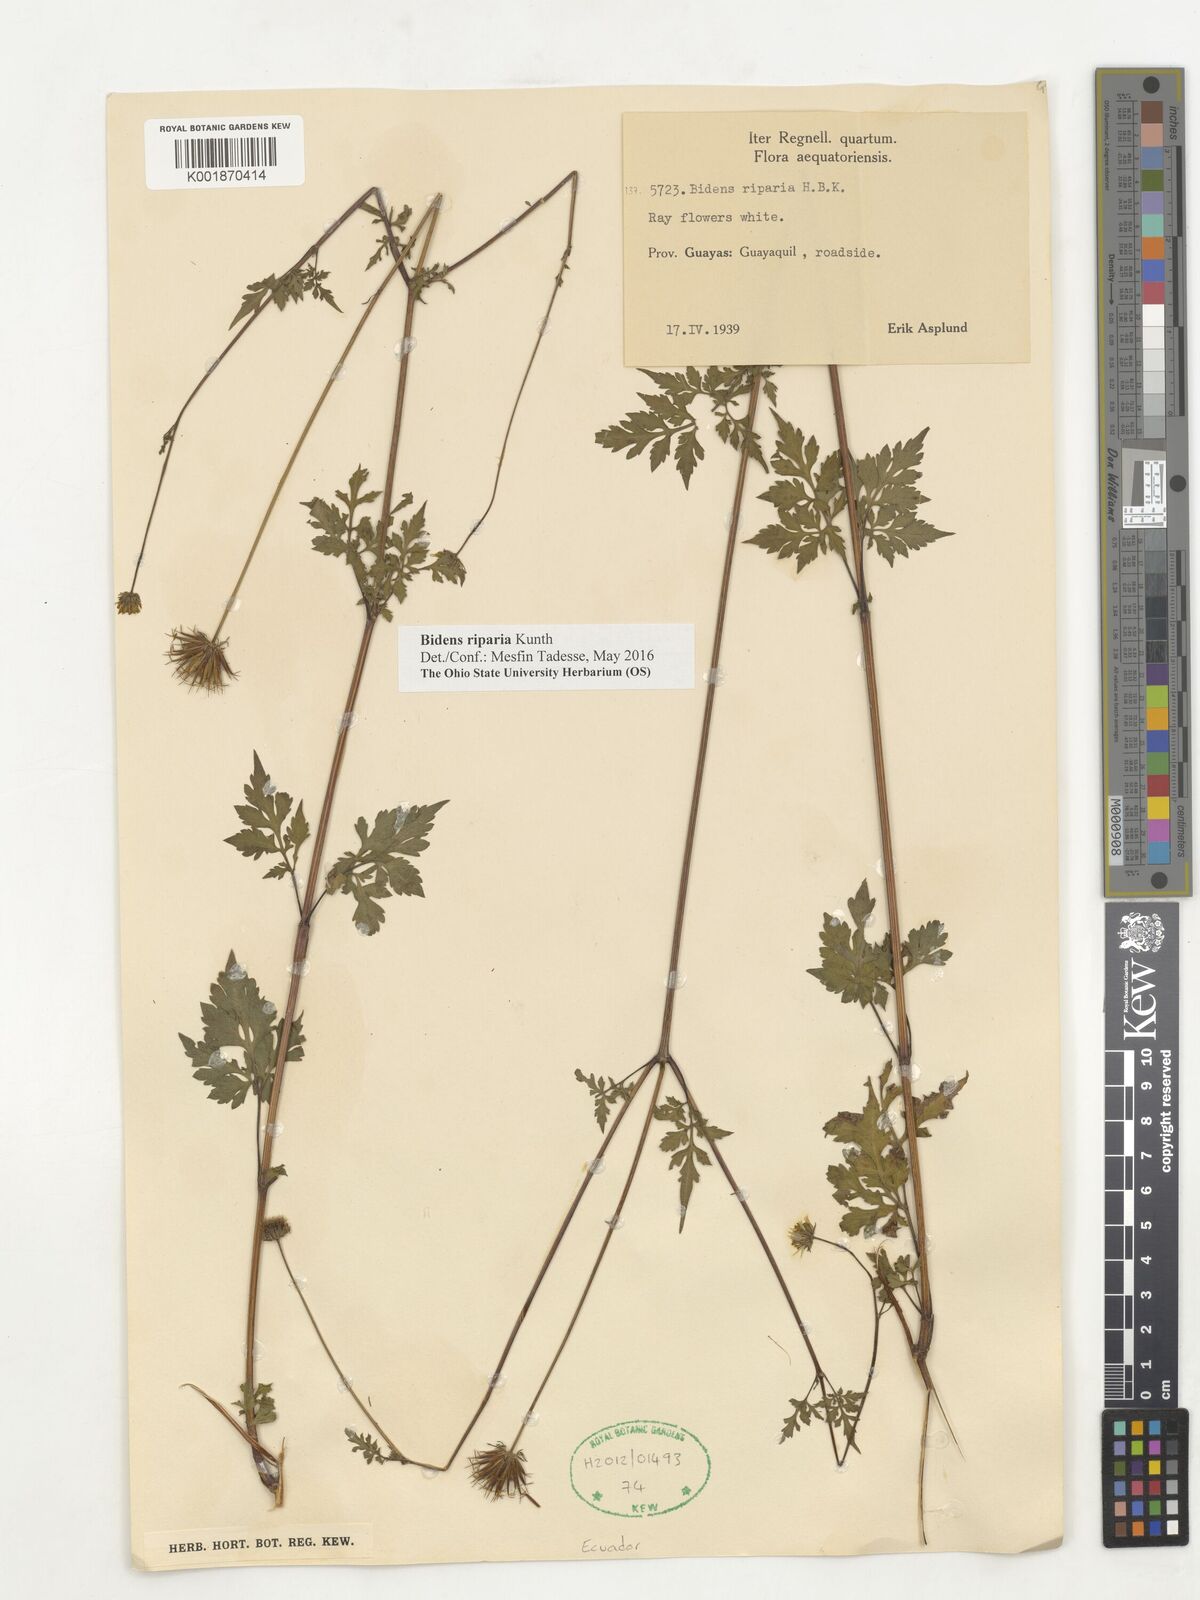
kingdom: Plantae
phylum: Tracheophyta
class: Magnoliopsida
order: Asterales
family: Asteraceae
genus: Bidens
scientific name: Bidens riparia
